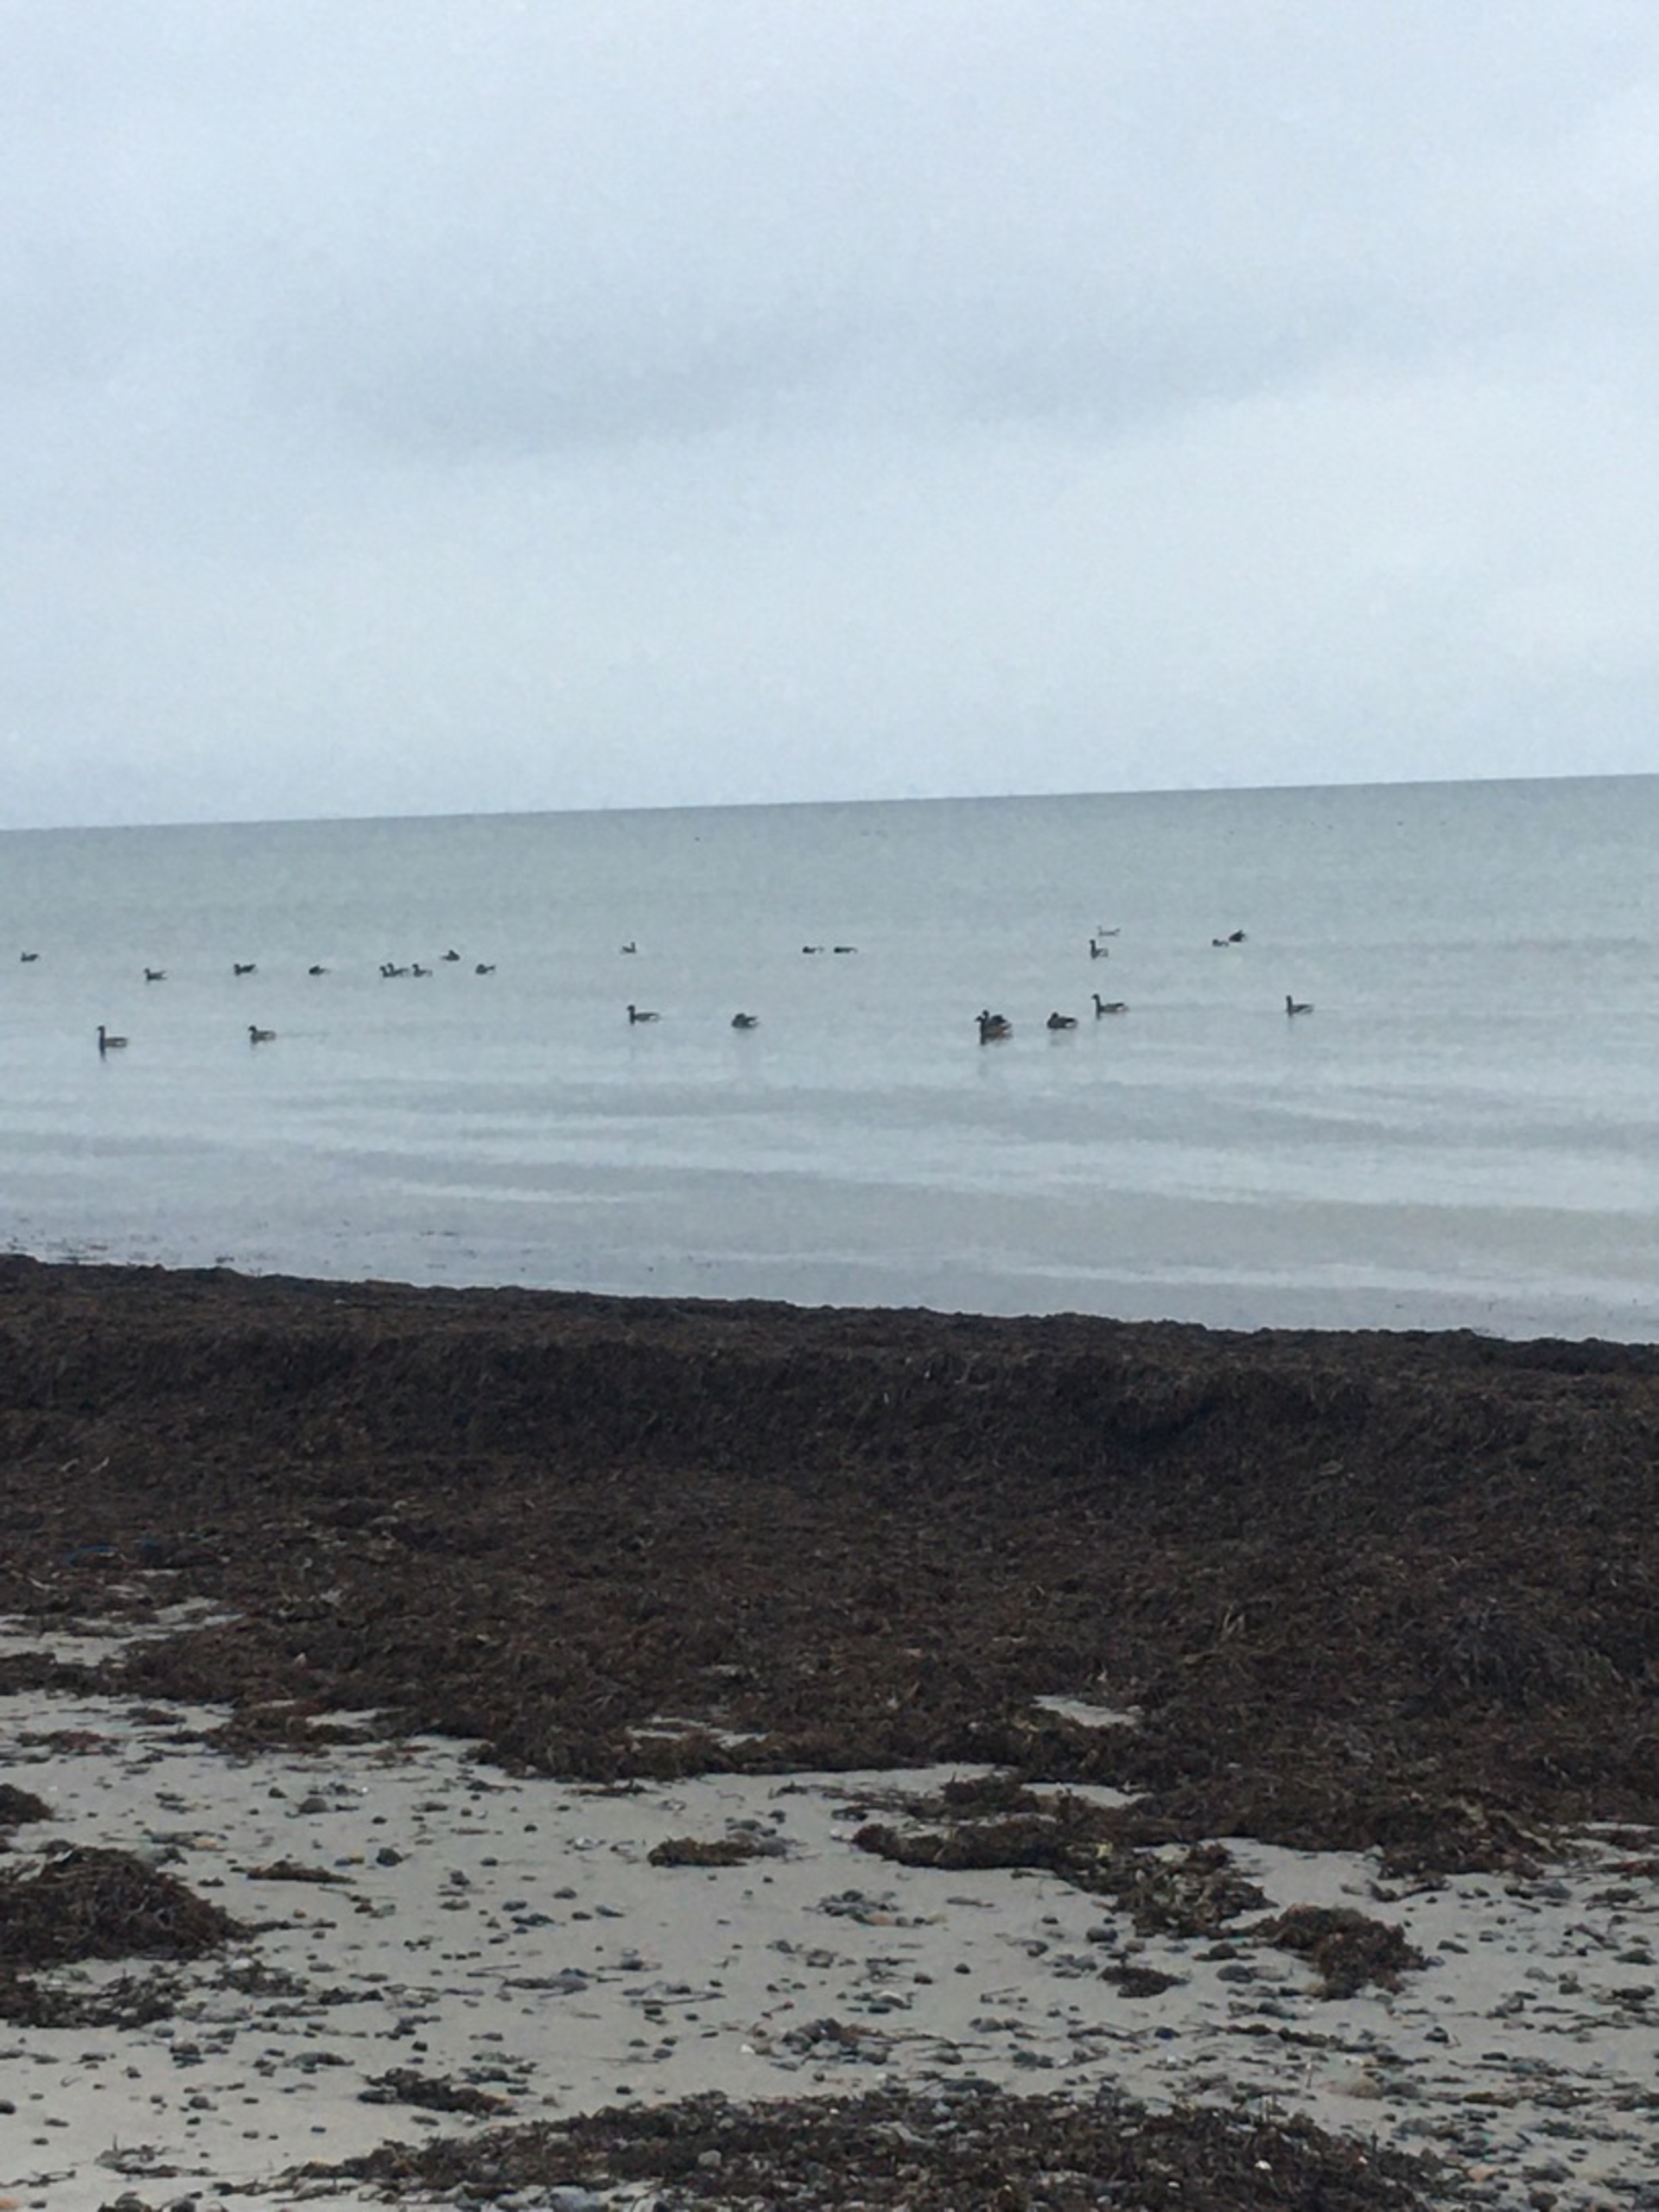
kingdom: Animalia
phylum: Chordata
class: Aves
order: Anseriformes
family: Anatidae
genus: Branta
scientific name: Branta bernicla
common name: Knortegås
